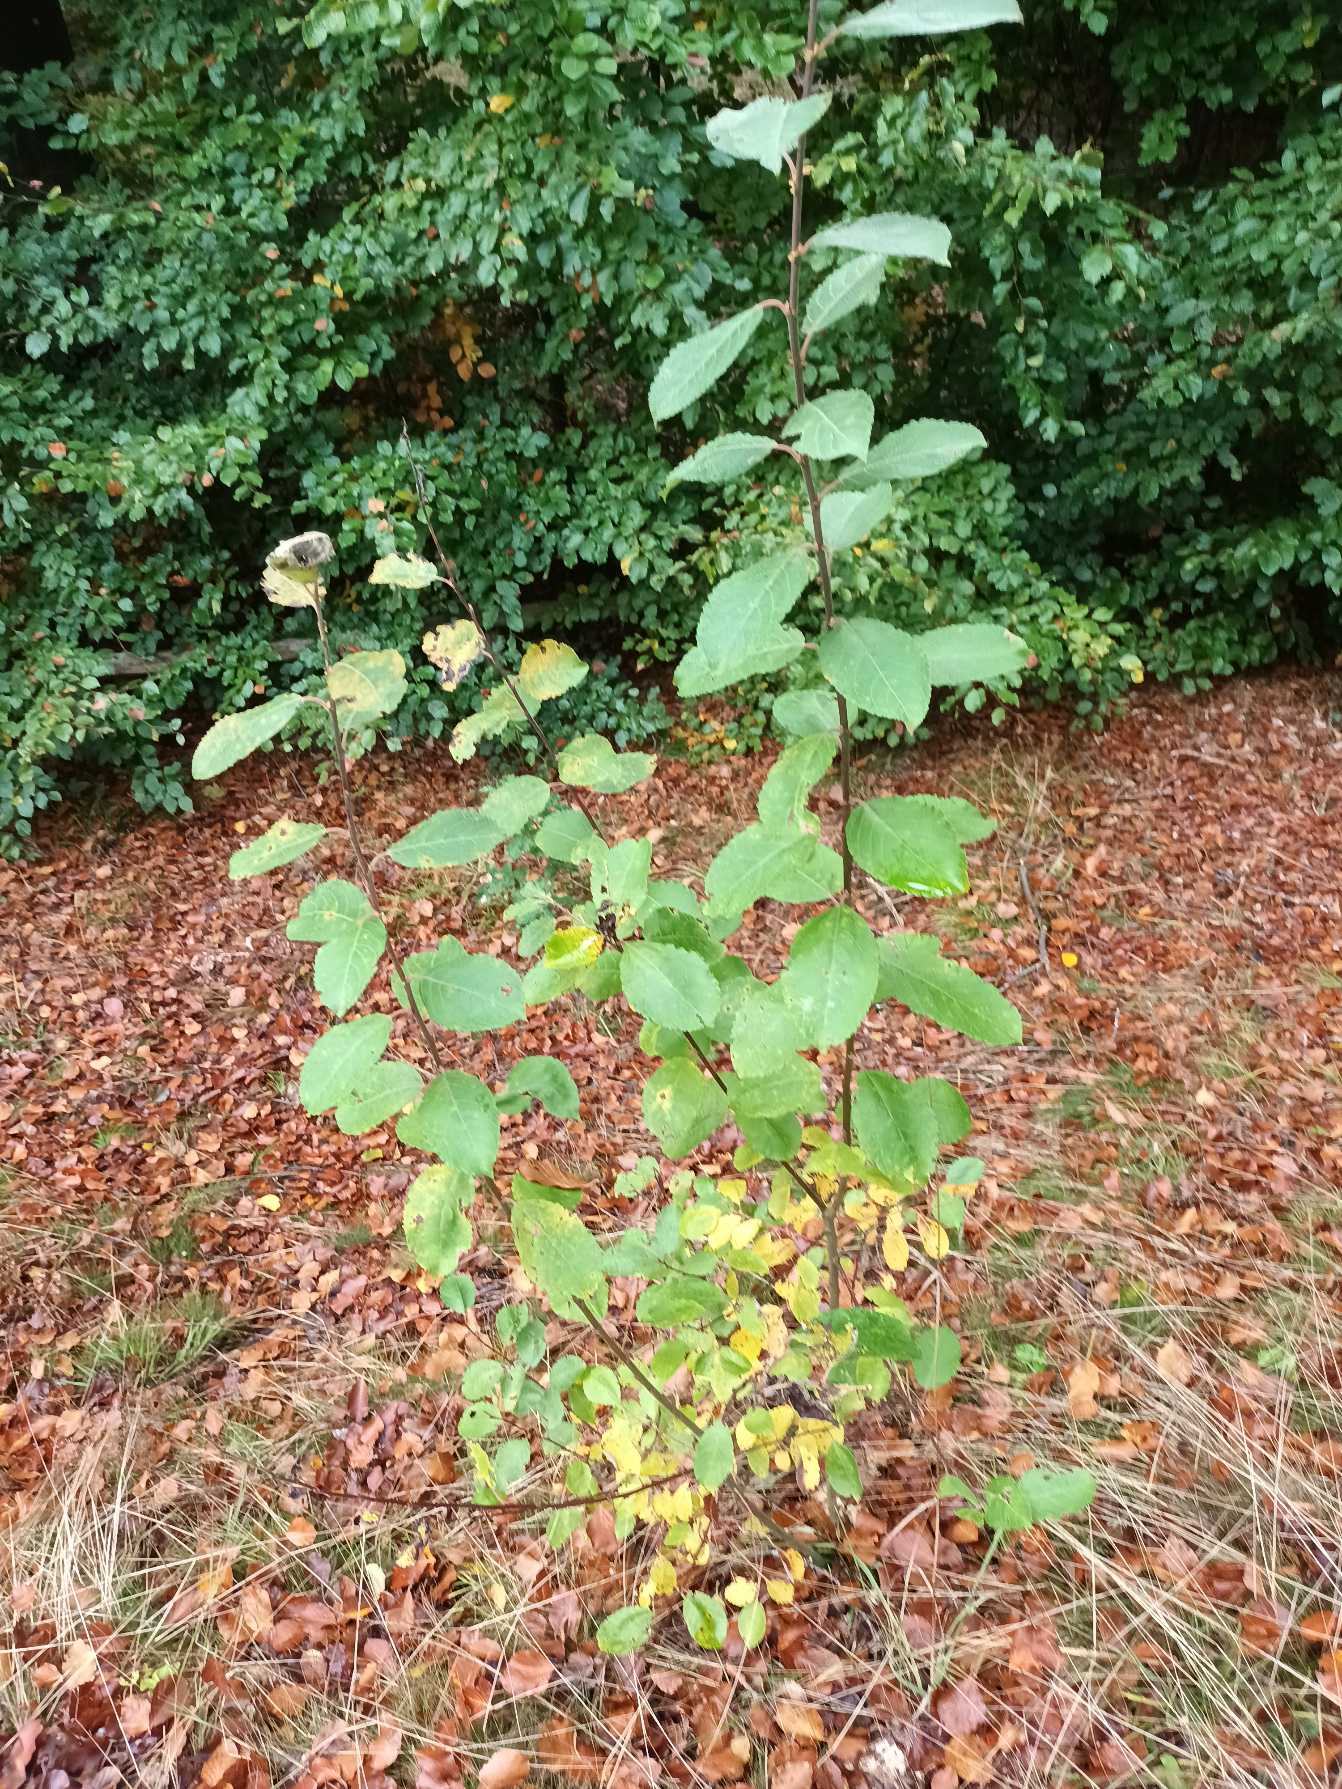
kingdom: Plantae
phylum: Tracheophyta
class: Magnoliopsida
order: Malpighiales
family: Salicaceae
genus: Salix
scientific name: Salix caprea
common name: Selje-pil
